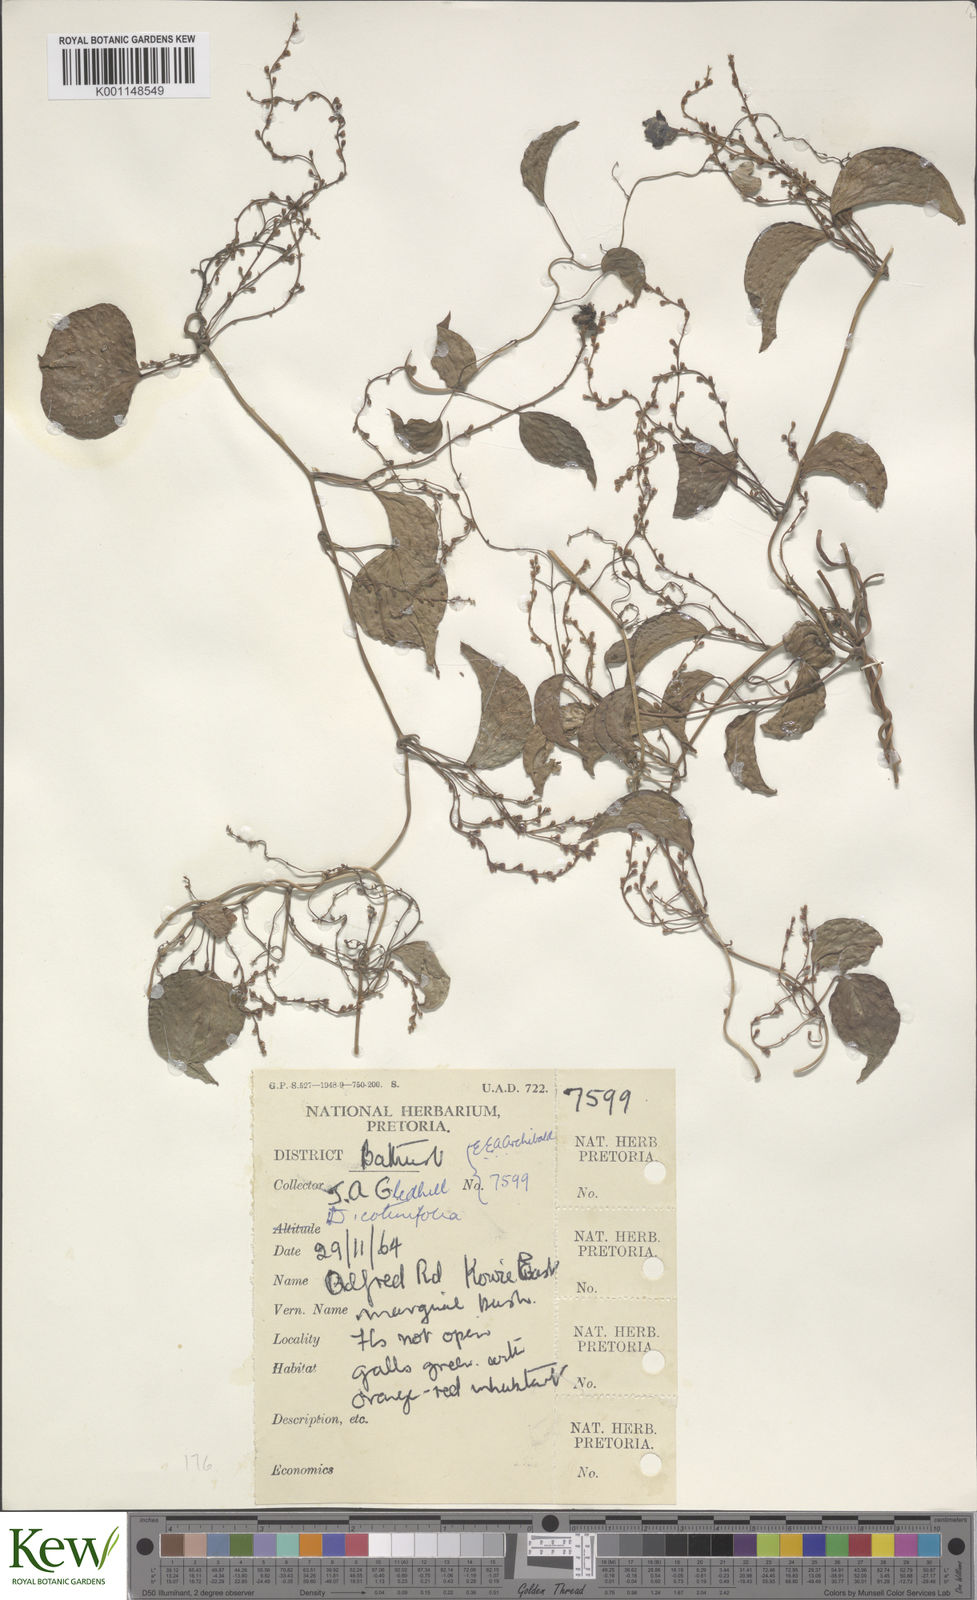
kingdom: Plantae
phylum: Tracheophyta
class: Liliopsida
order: Dioscoreales
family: Dioscoreaceae
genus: Dioscorea
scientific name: Dioscorea cotinifolia
